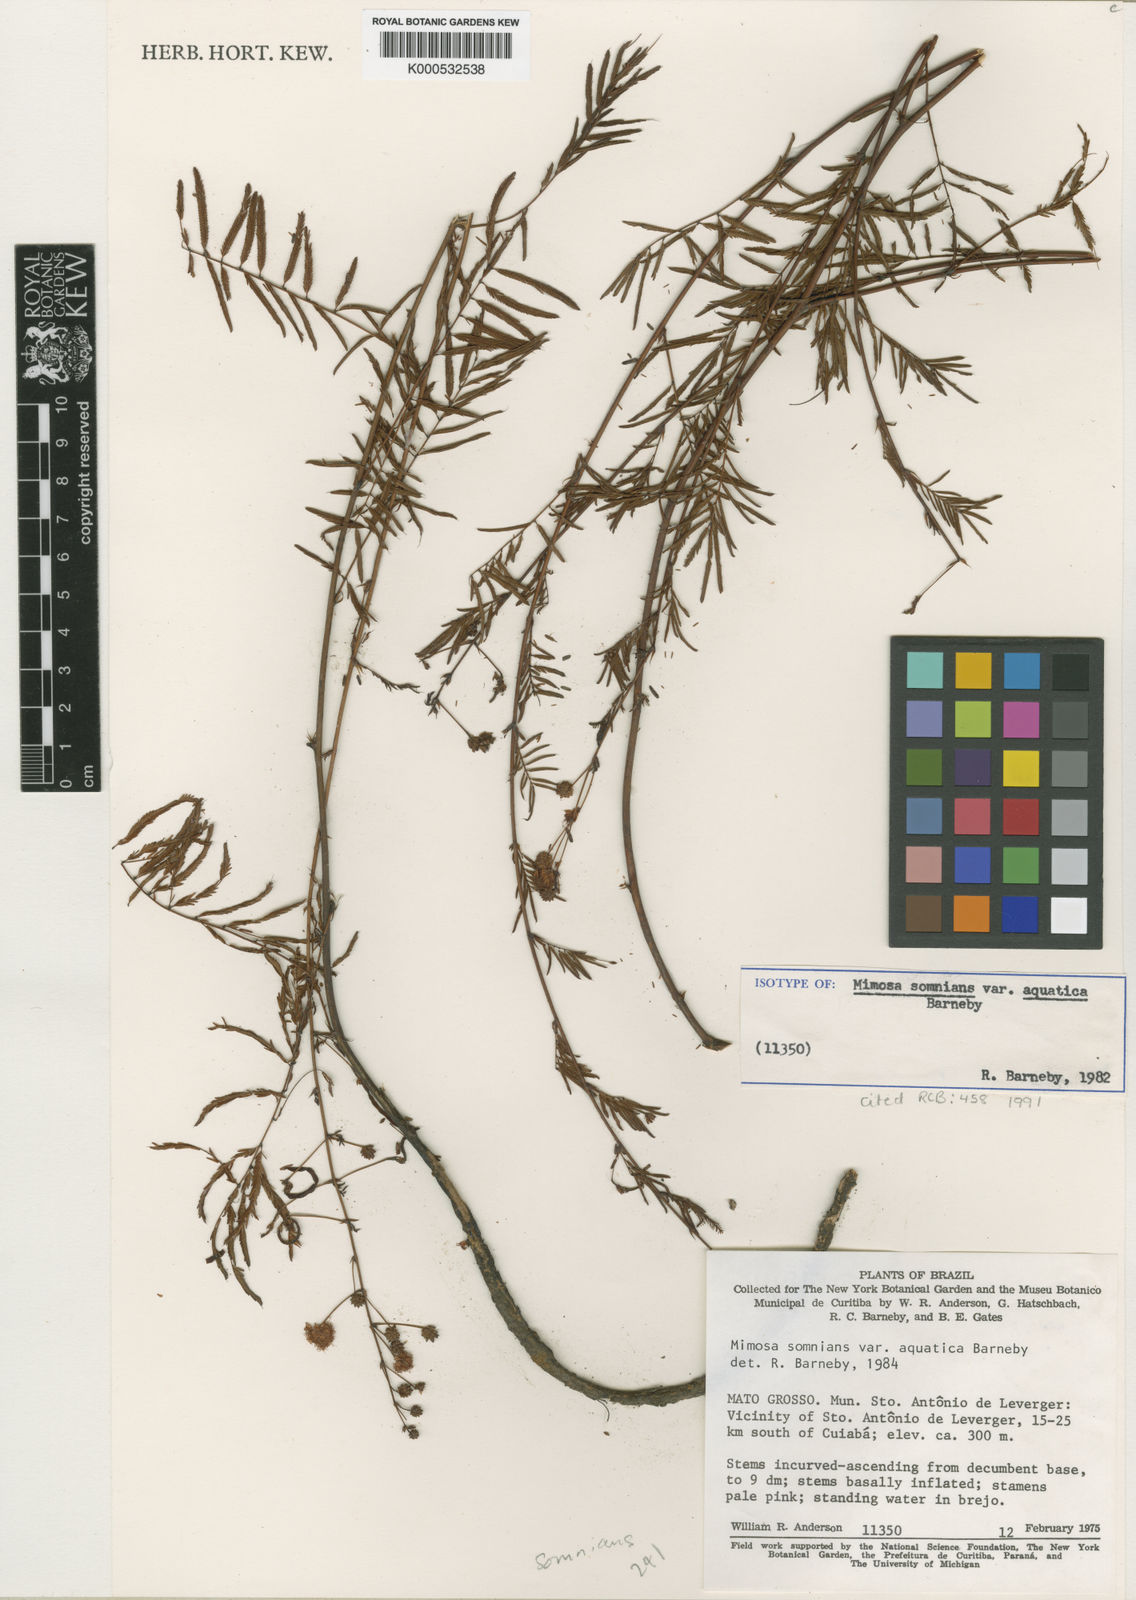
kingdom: Plantae
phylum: Tracheophyta
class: Magnoliopsida
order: Fabales
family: Fabaceae
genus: Mimosa
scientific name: Mimosa somnians
